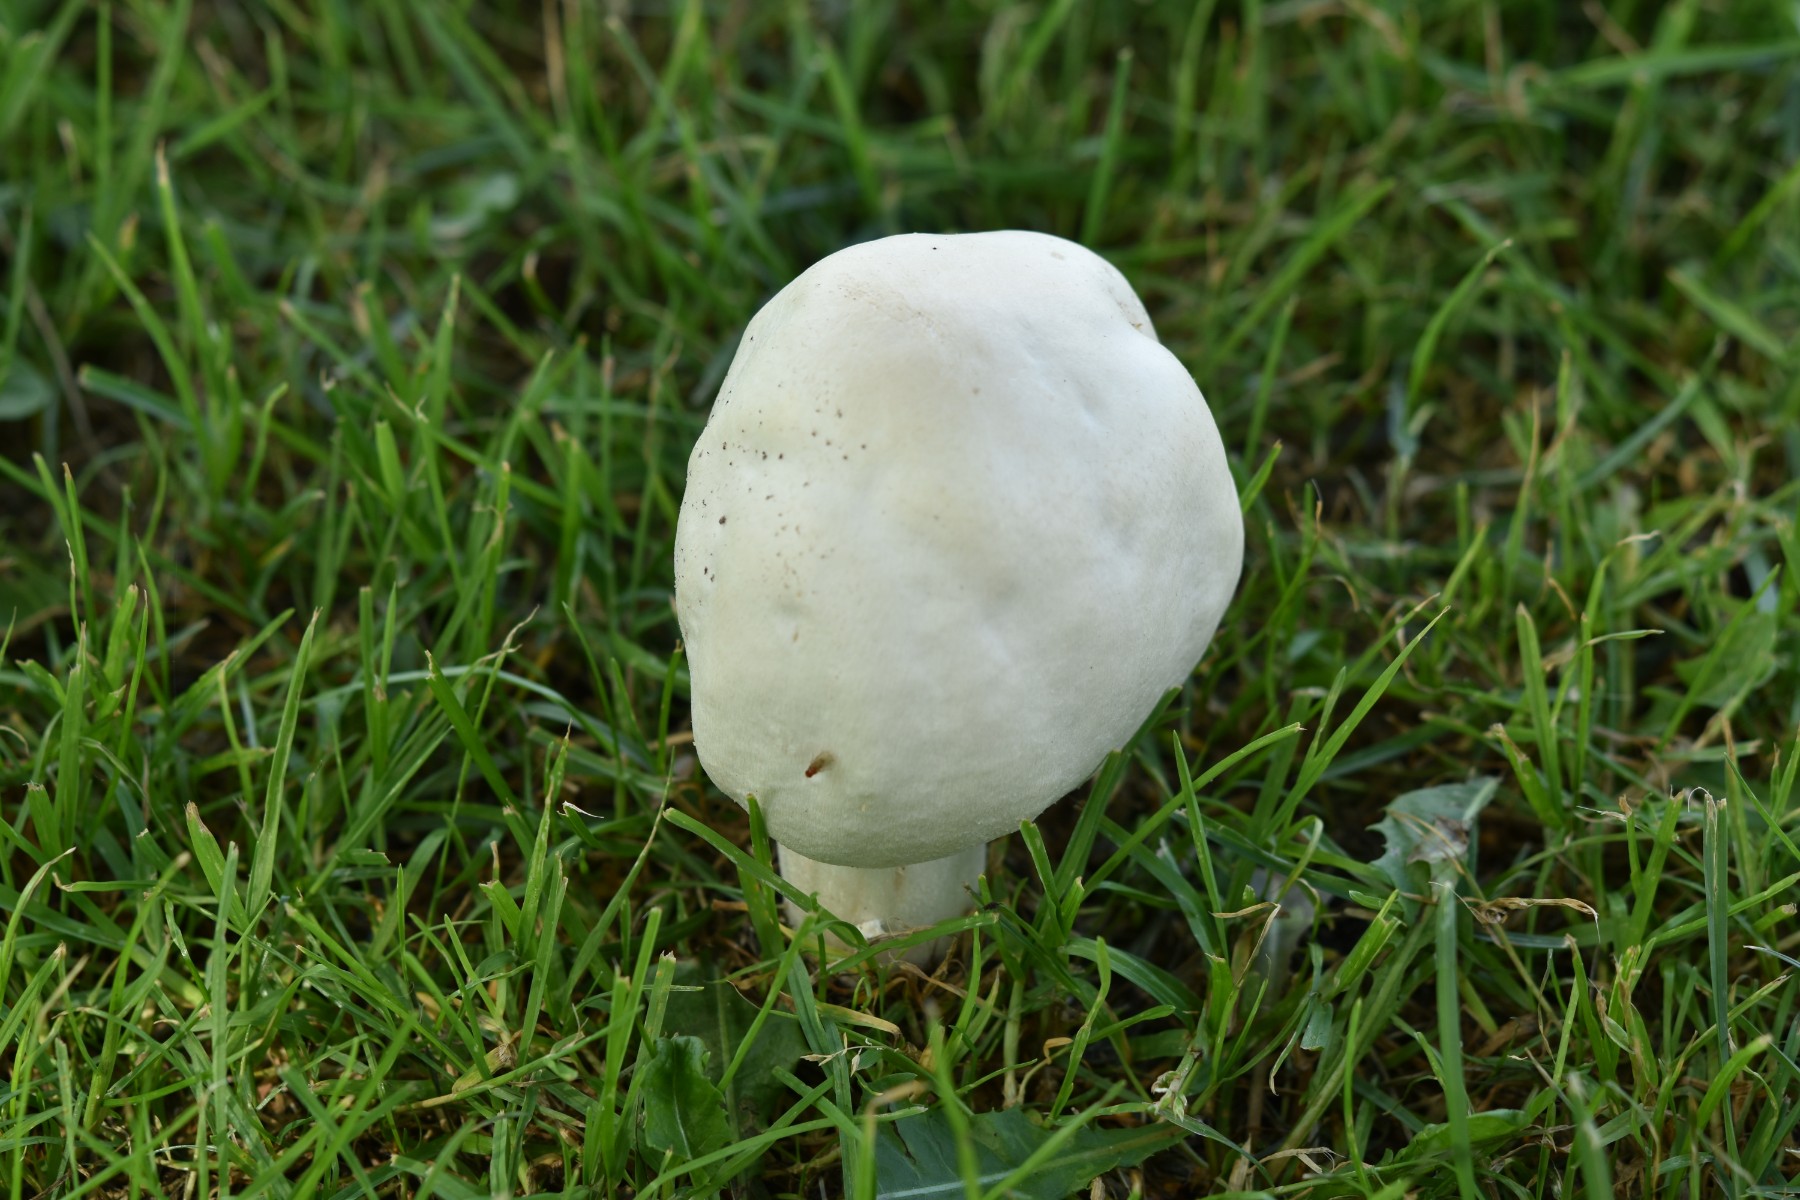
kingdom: Fungi
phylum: Basidiomycota
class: Agaricomycetes
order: Agaricales
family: Agaricaceae
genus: Agaricus
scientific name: Agaricus arvensis
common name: ager-champignon
